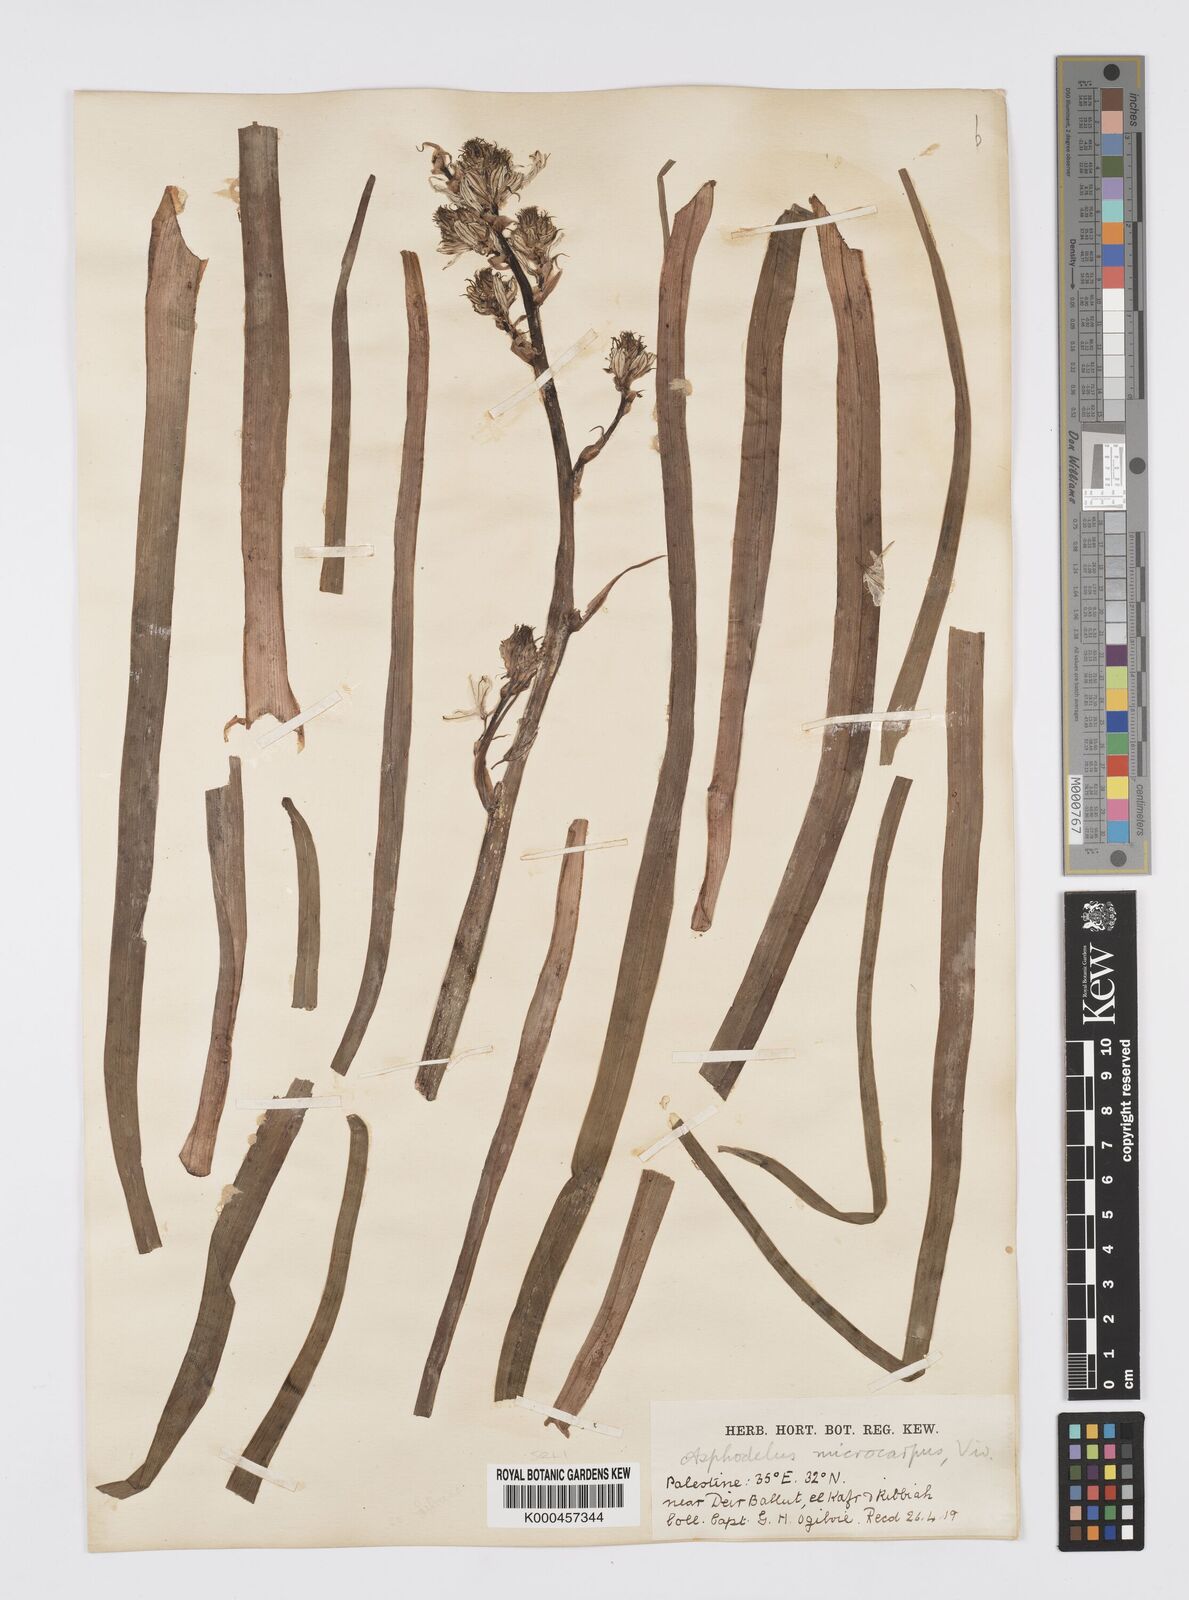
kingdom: Plantae
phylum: Tracheophyta
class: Liliopsida
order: Asparagales
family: Asphodelaceae
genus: Asphodelus
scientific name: Asphodelus aestivus
